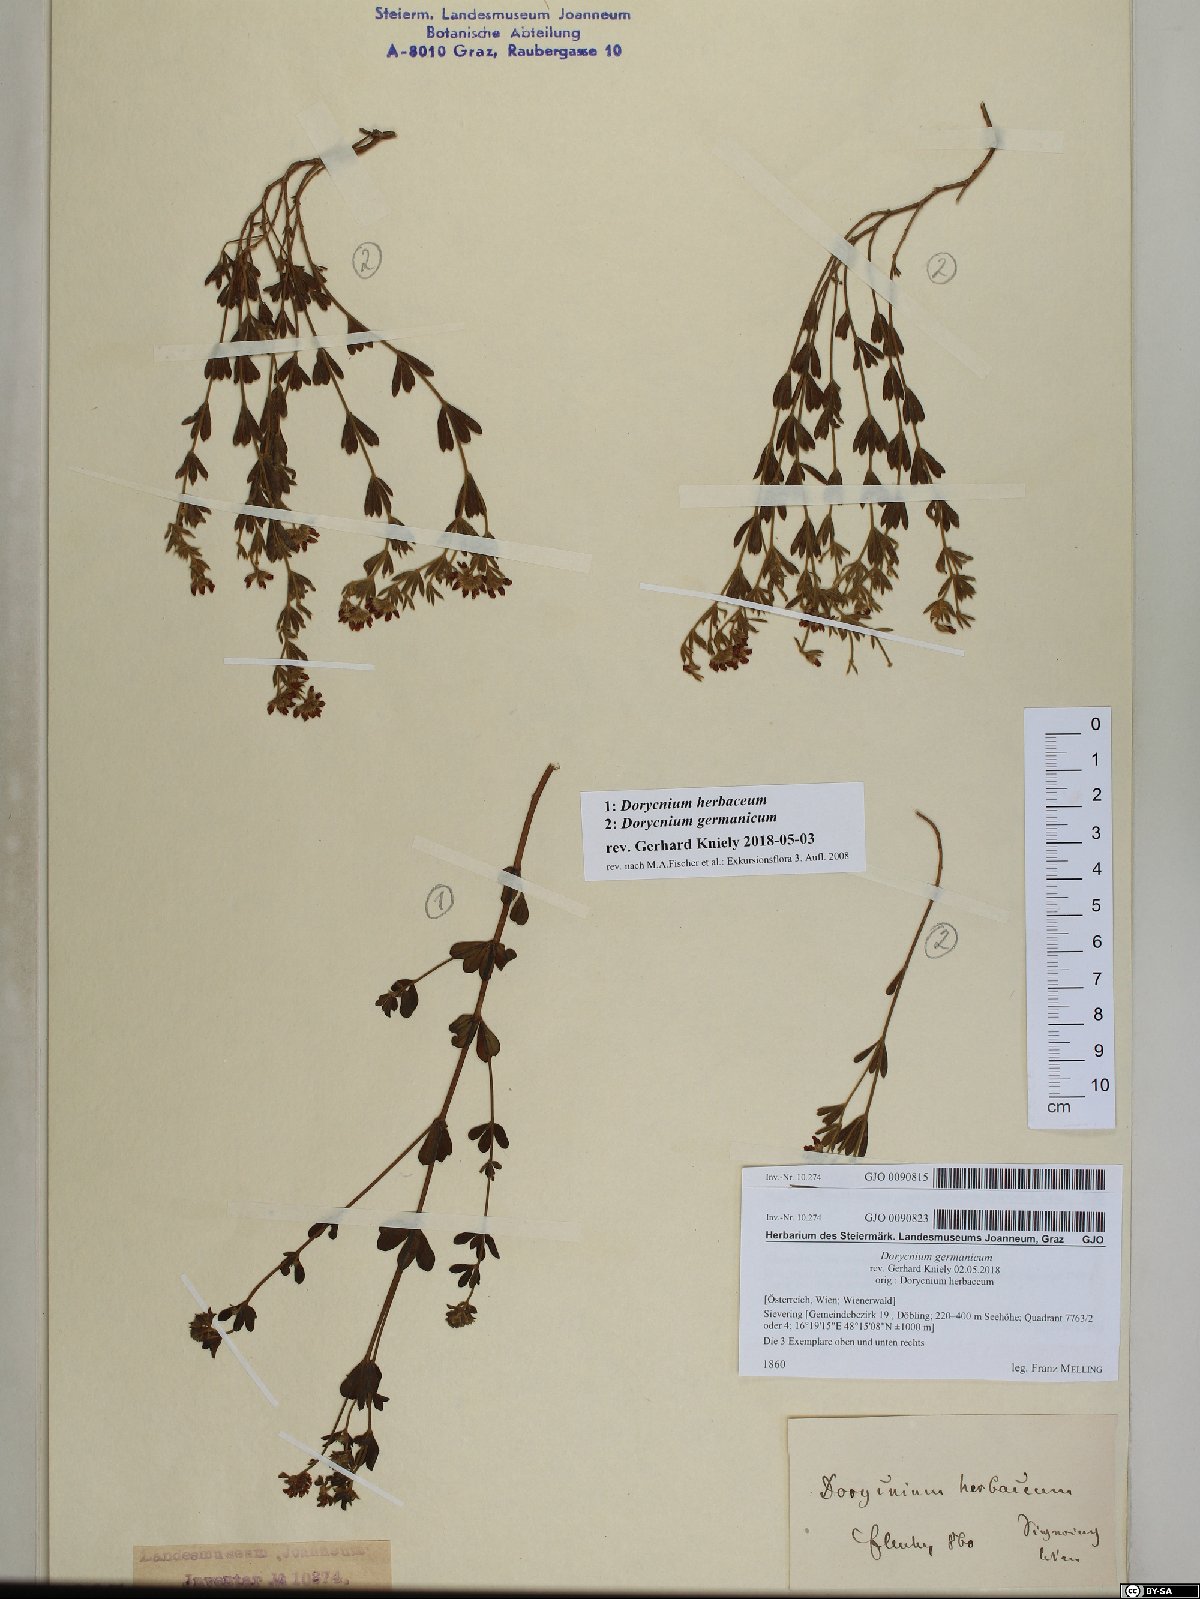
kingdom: Plantae
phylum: Tracheophyta
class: Magnoliopsida
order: Fabales
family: Fabaceae
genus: Lotus
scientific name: Lotus germanicus
